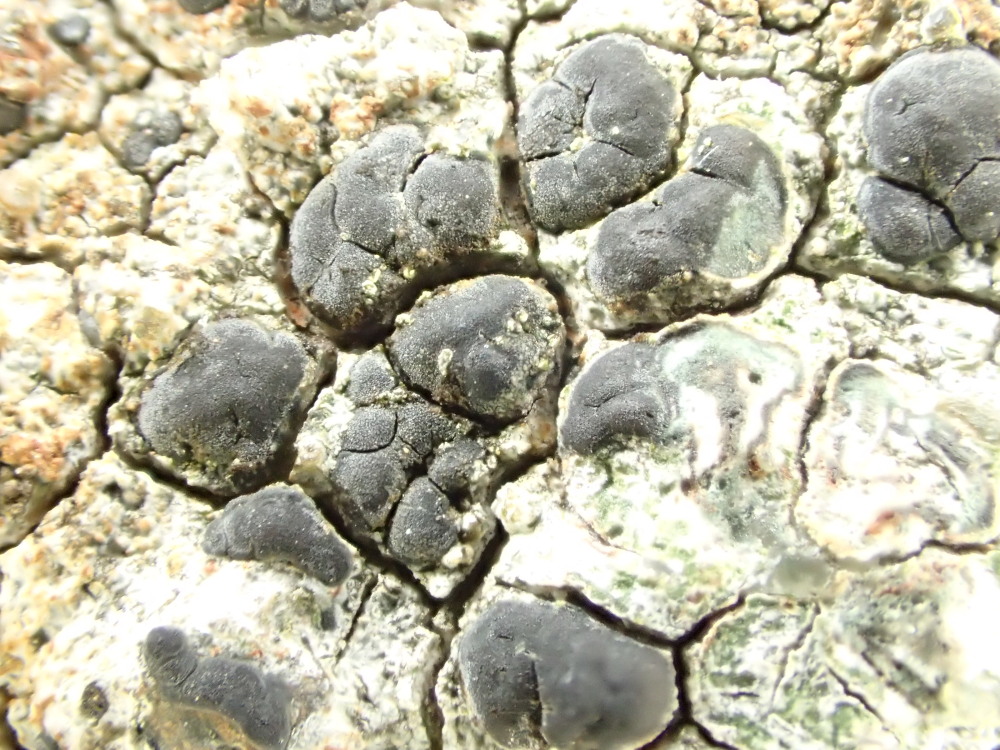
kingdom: Fungi
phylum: Ascomycota
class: Lecanoromycetes
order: Lecideales
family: Lecideaceae
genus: Lecidea
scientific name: Lecidea grisella
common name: grå skivelav
